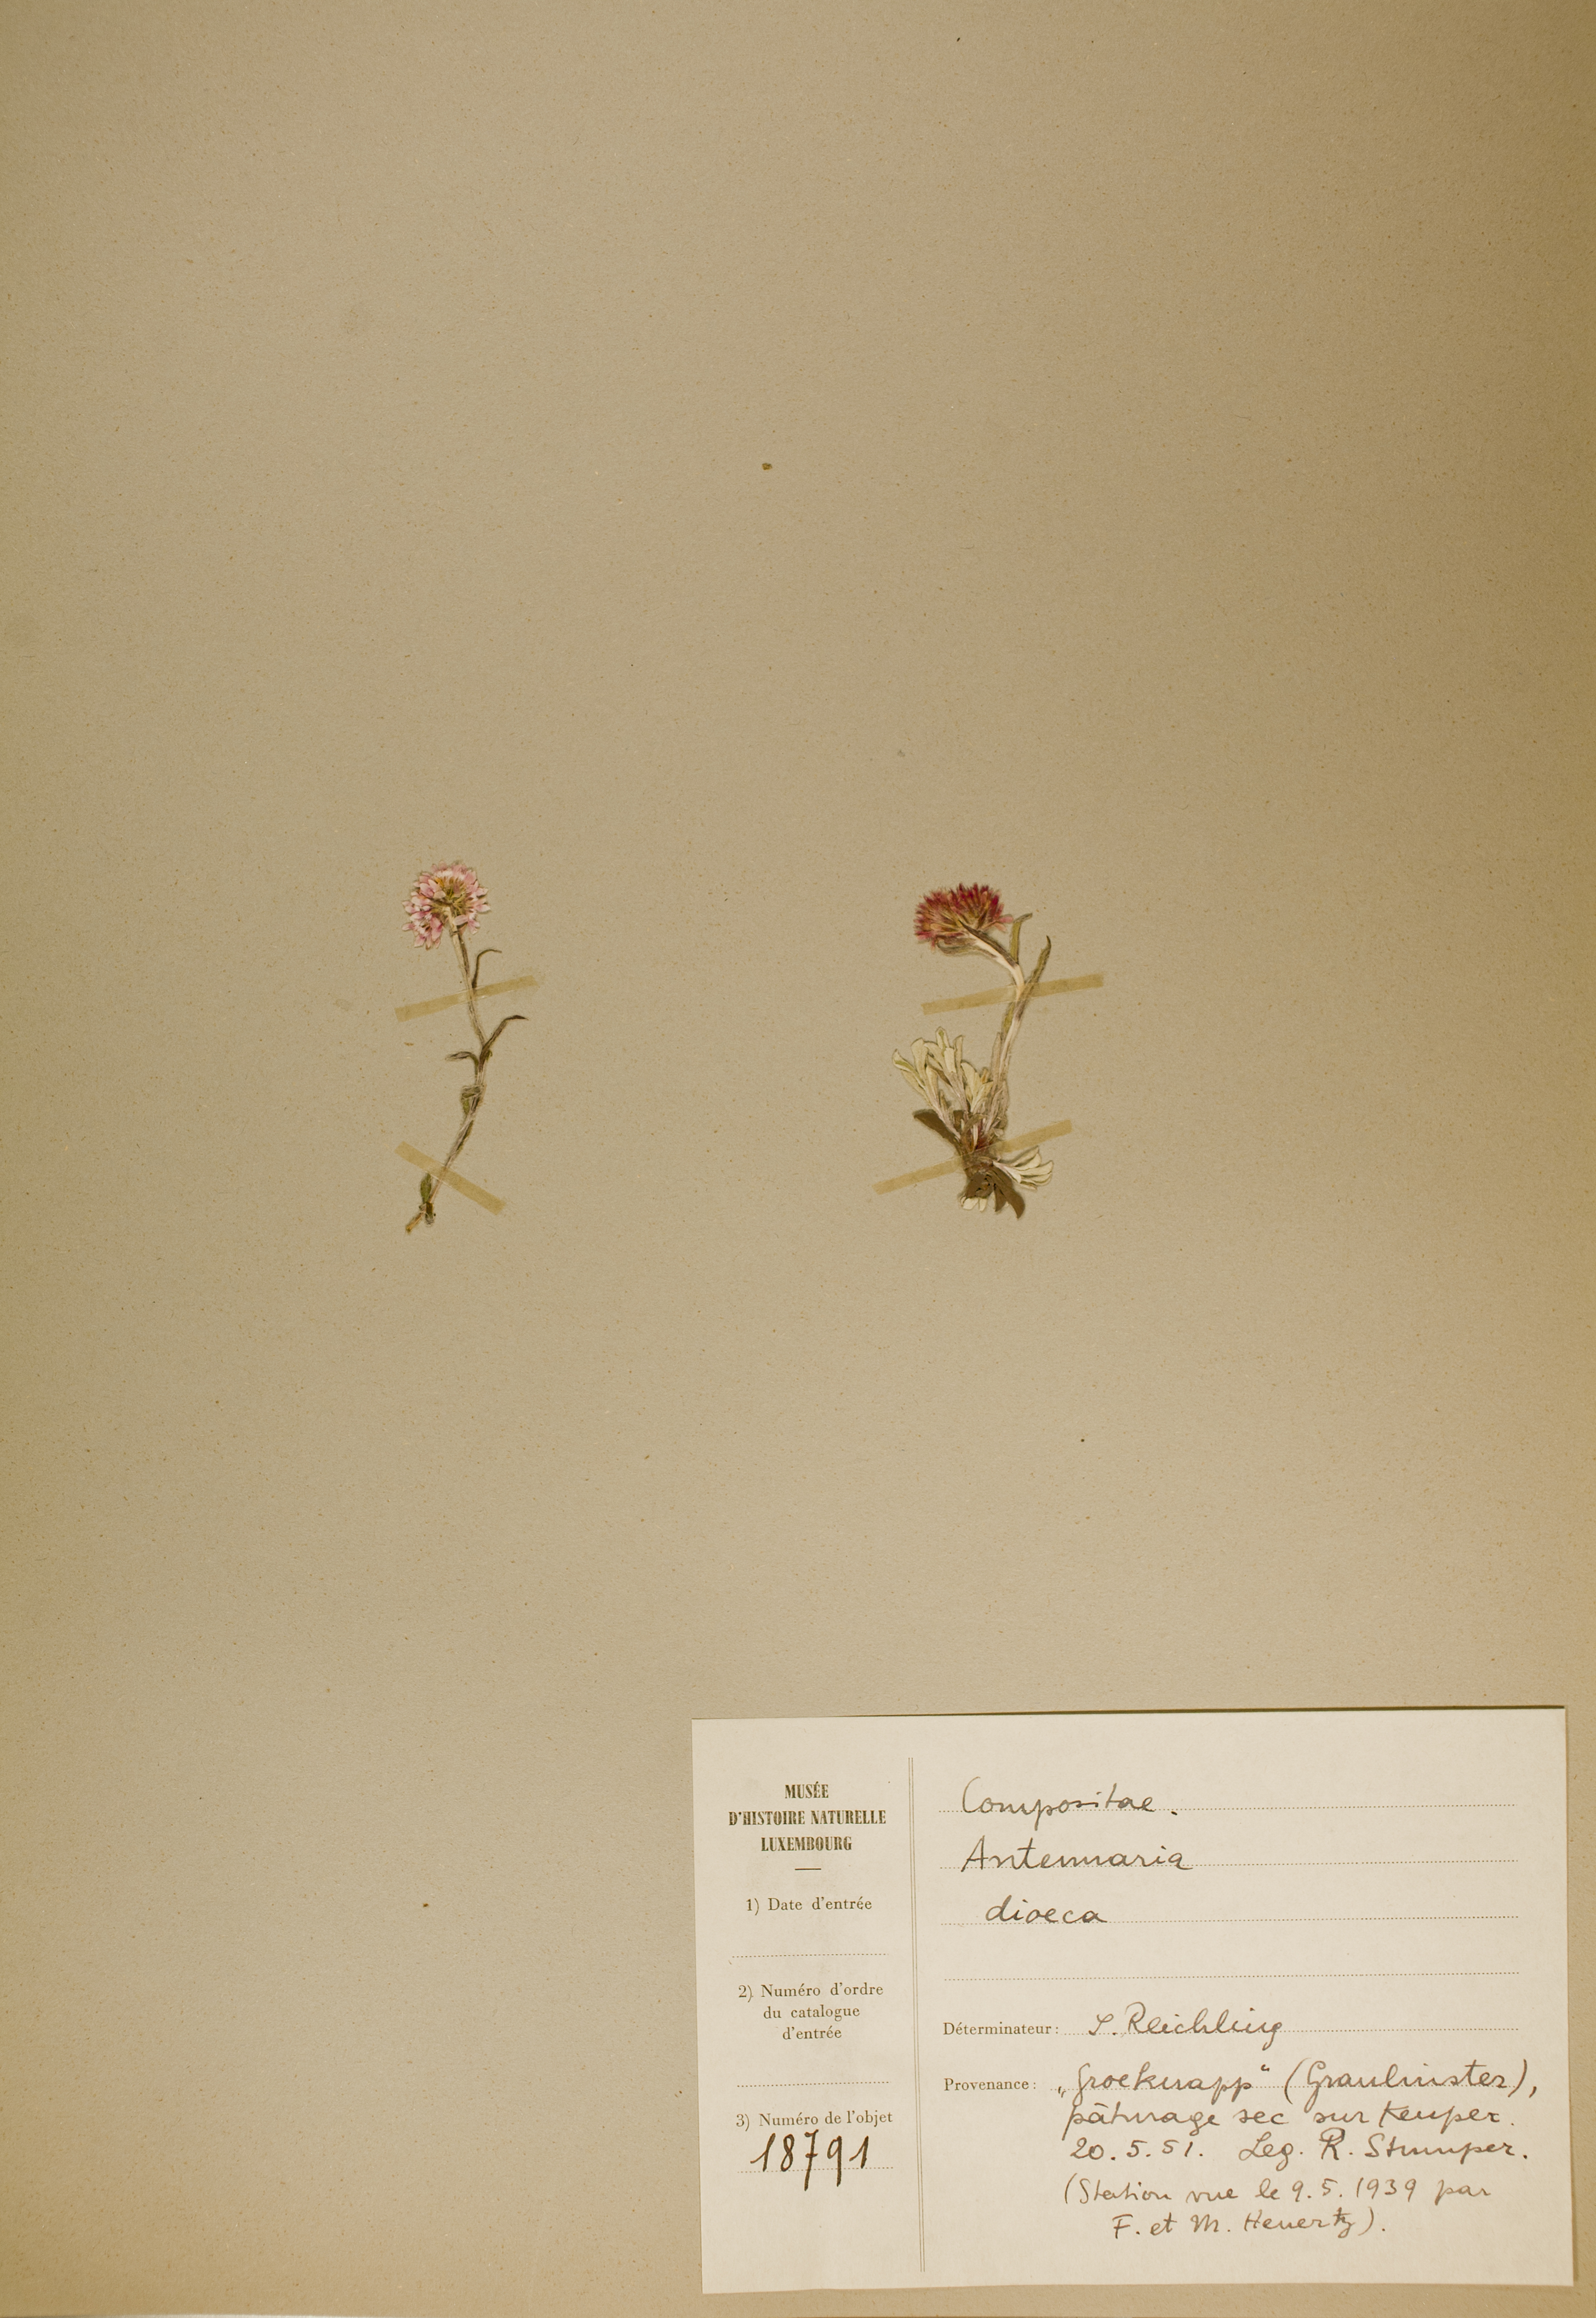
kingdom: Plantae
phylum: Tracheophyta
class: Magnoliopsida
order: Asterales
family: Asteraceae
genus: Antennaria
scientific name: Antennaria dioica
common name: Mountain everlasting
